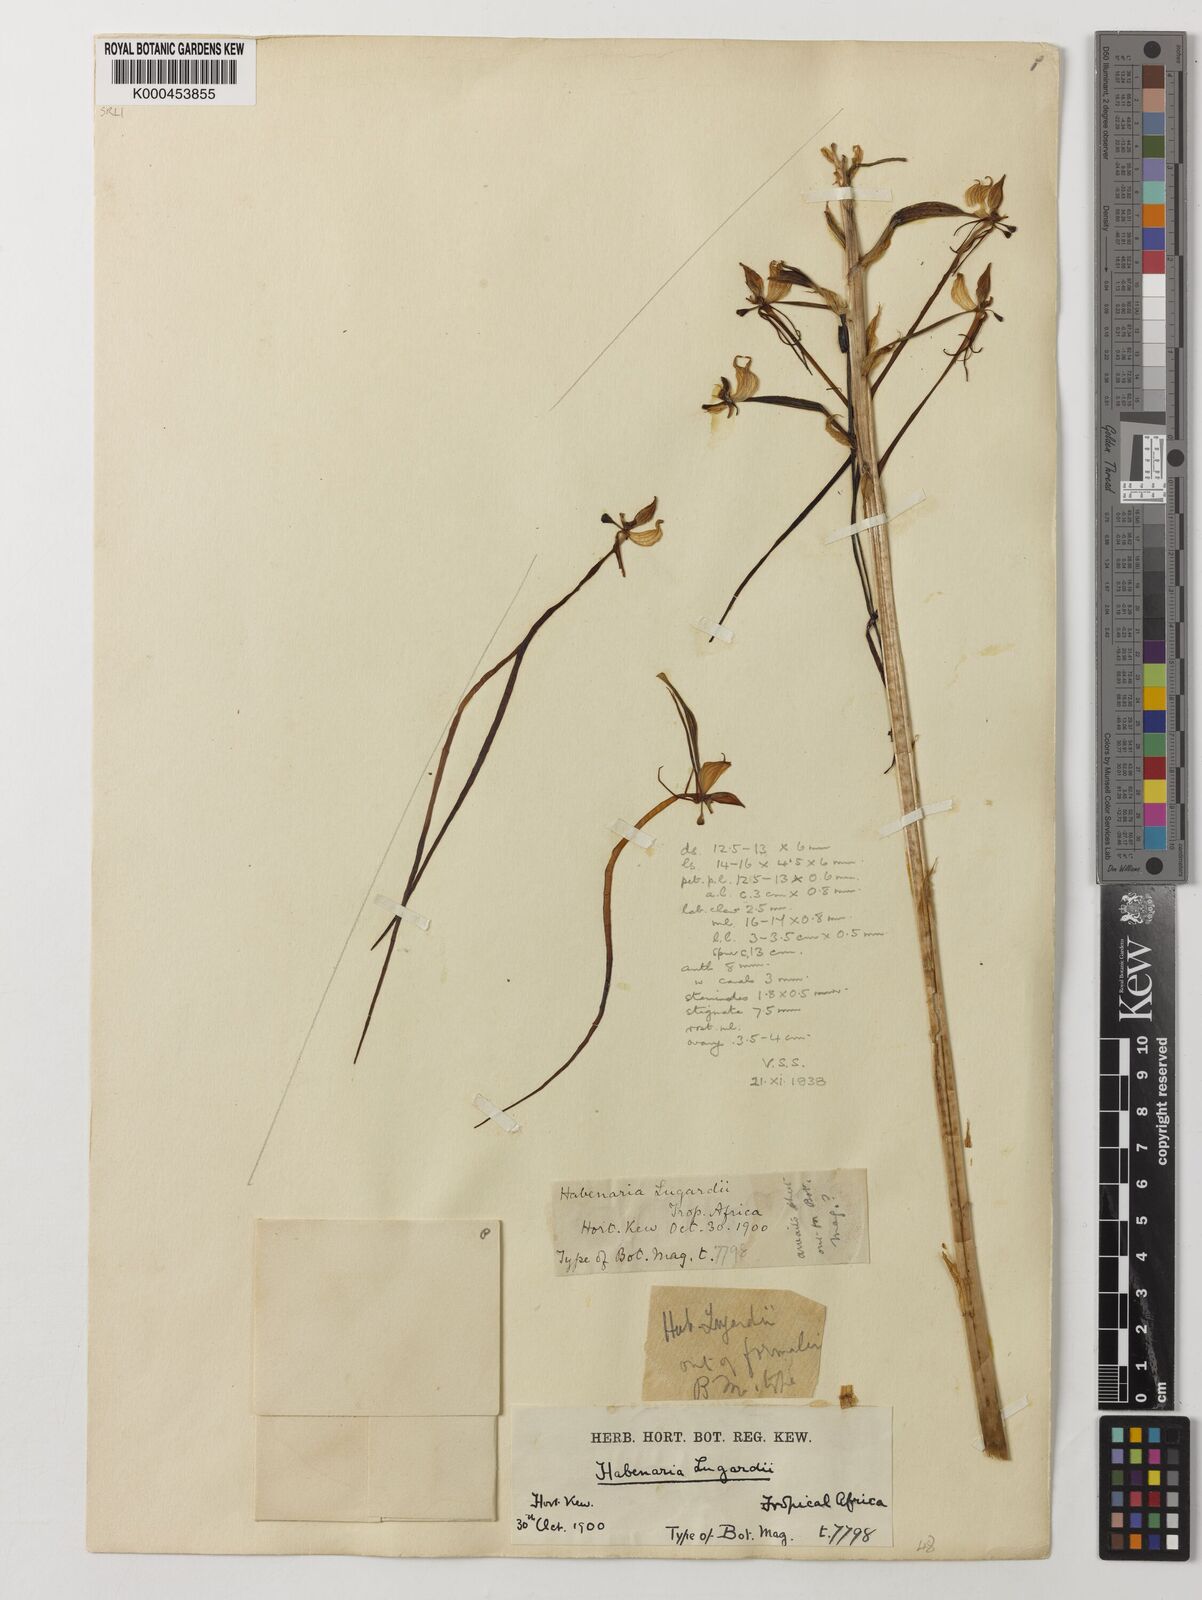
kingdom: Plantae
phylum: Tracheophyta
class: Liliopsida
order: Asparagales
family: Orchidaceae
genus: Habenaria
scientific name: Habenaria armatissima
